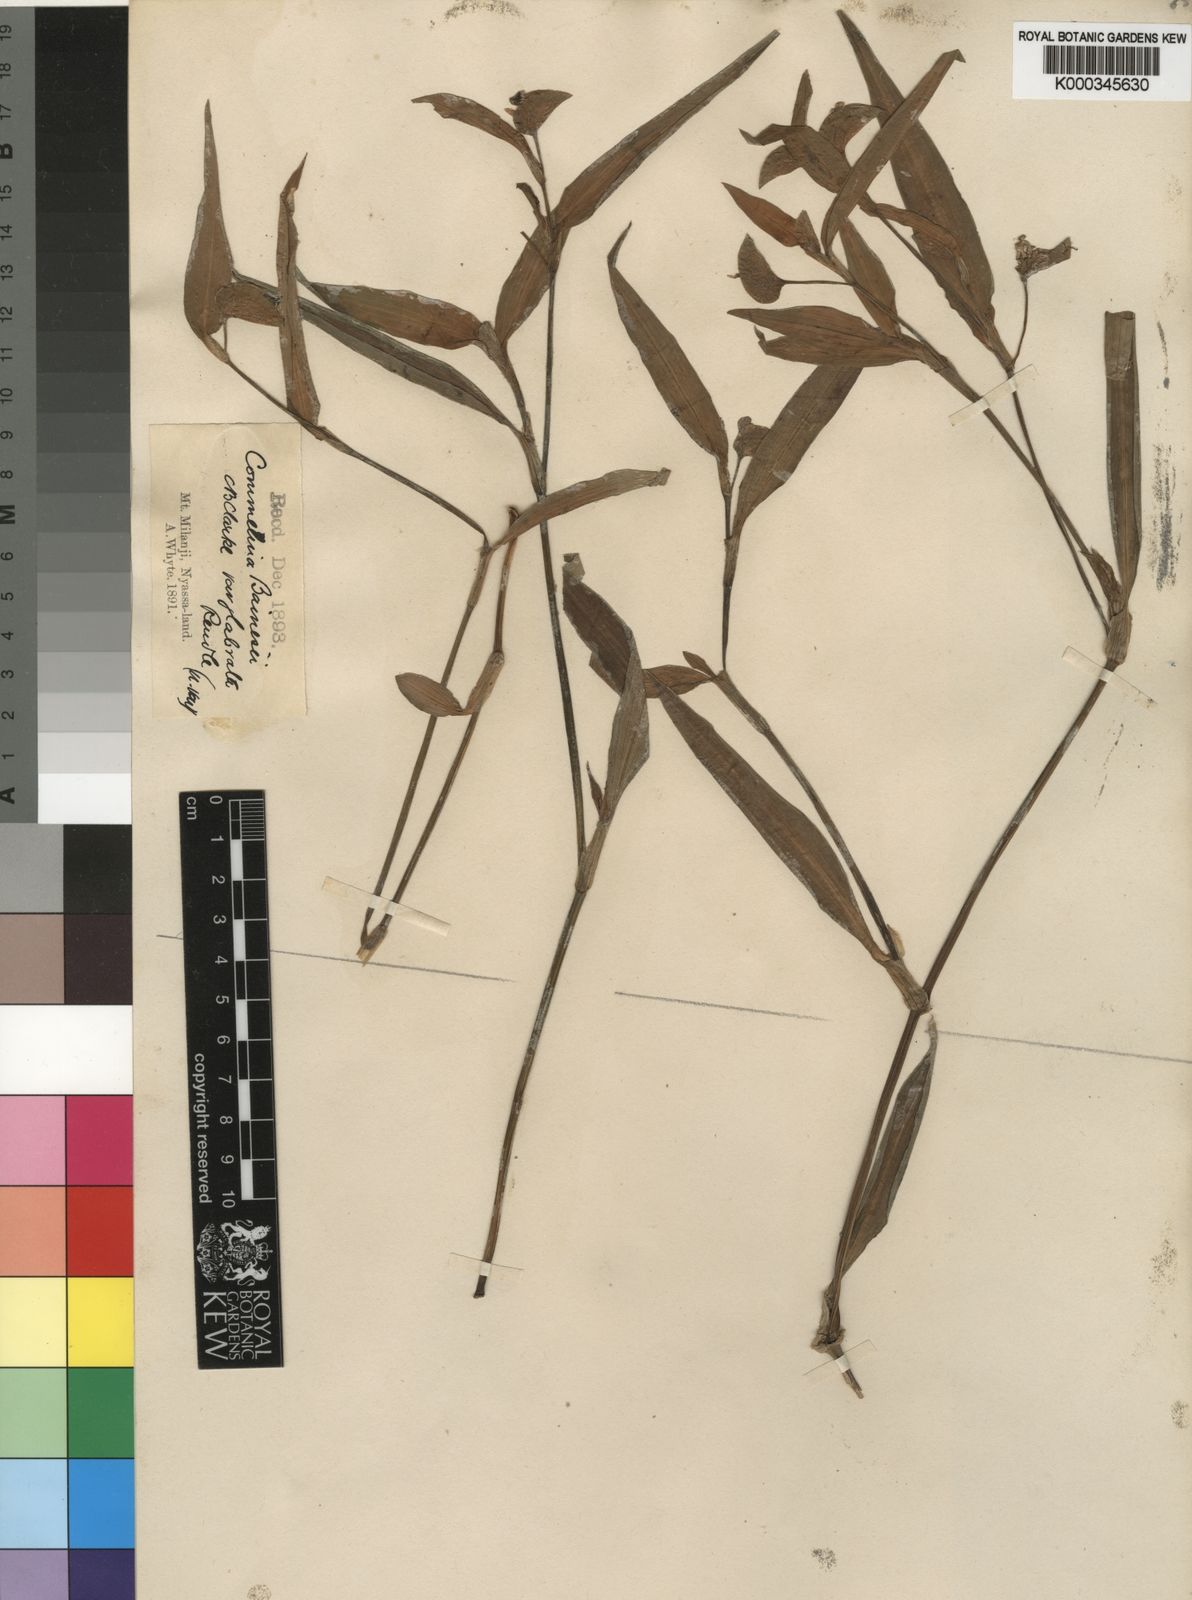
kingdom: Plantae
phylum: Tracheophyta
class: Liliopsida
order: Commelinales
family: Commelinaceae
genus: Commelina
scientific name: Commelina bracteosa
